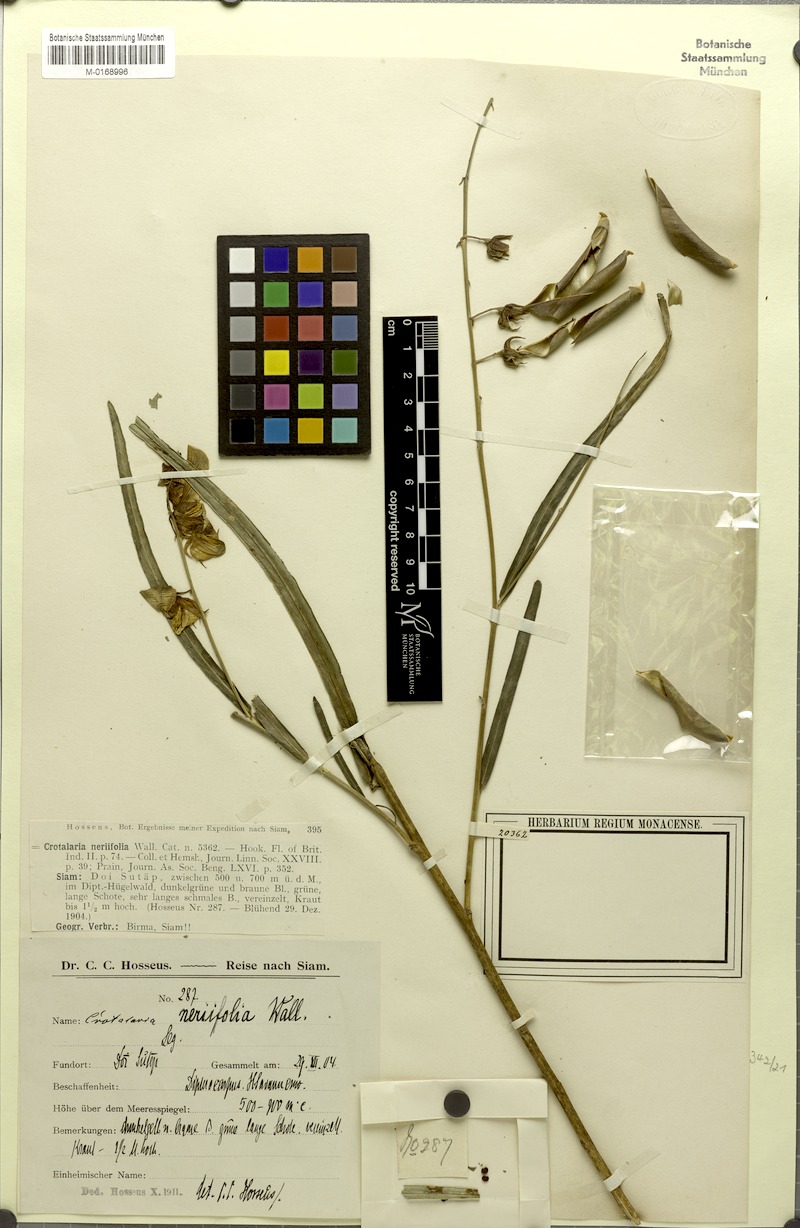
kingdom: Plantae
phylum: Tracheophyta
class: Magnoliopsida
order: Fabales
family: Fabaceae
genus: Crotalaria
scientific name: Crotalaria neriifolia
